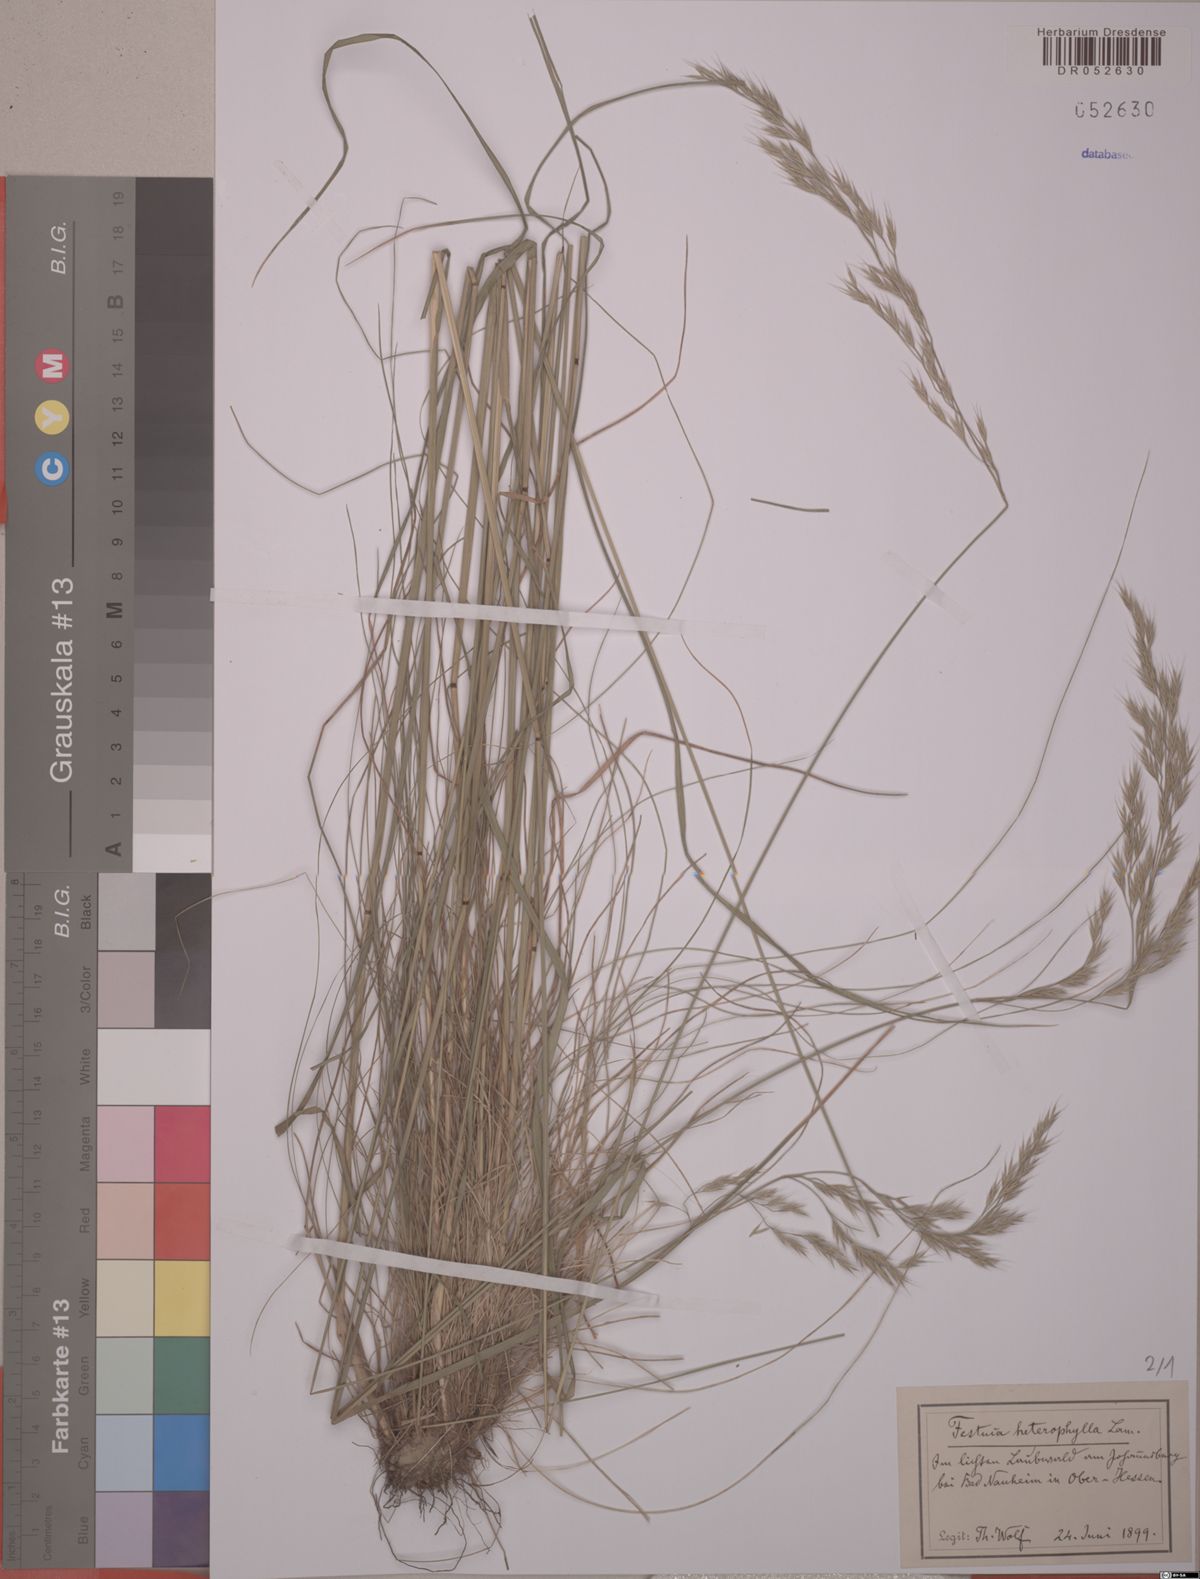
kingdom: Plantae
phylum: Tracheophyta
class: Liliopsida
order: Poales
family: Poaceae
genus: Festuca
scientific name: Festuca heterophylla
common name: Various-leaved fescue
